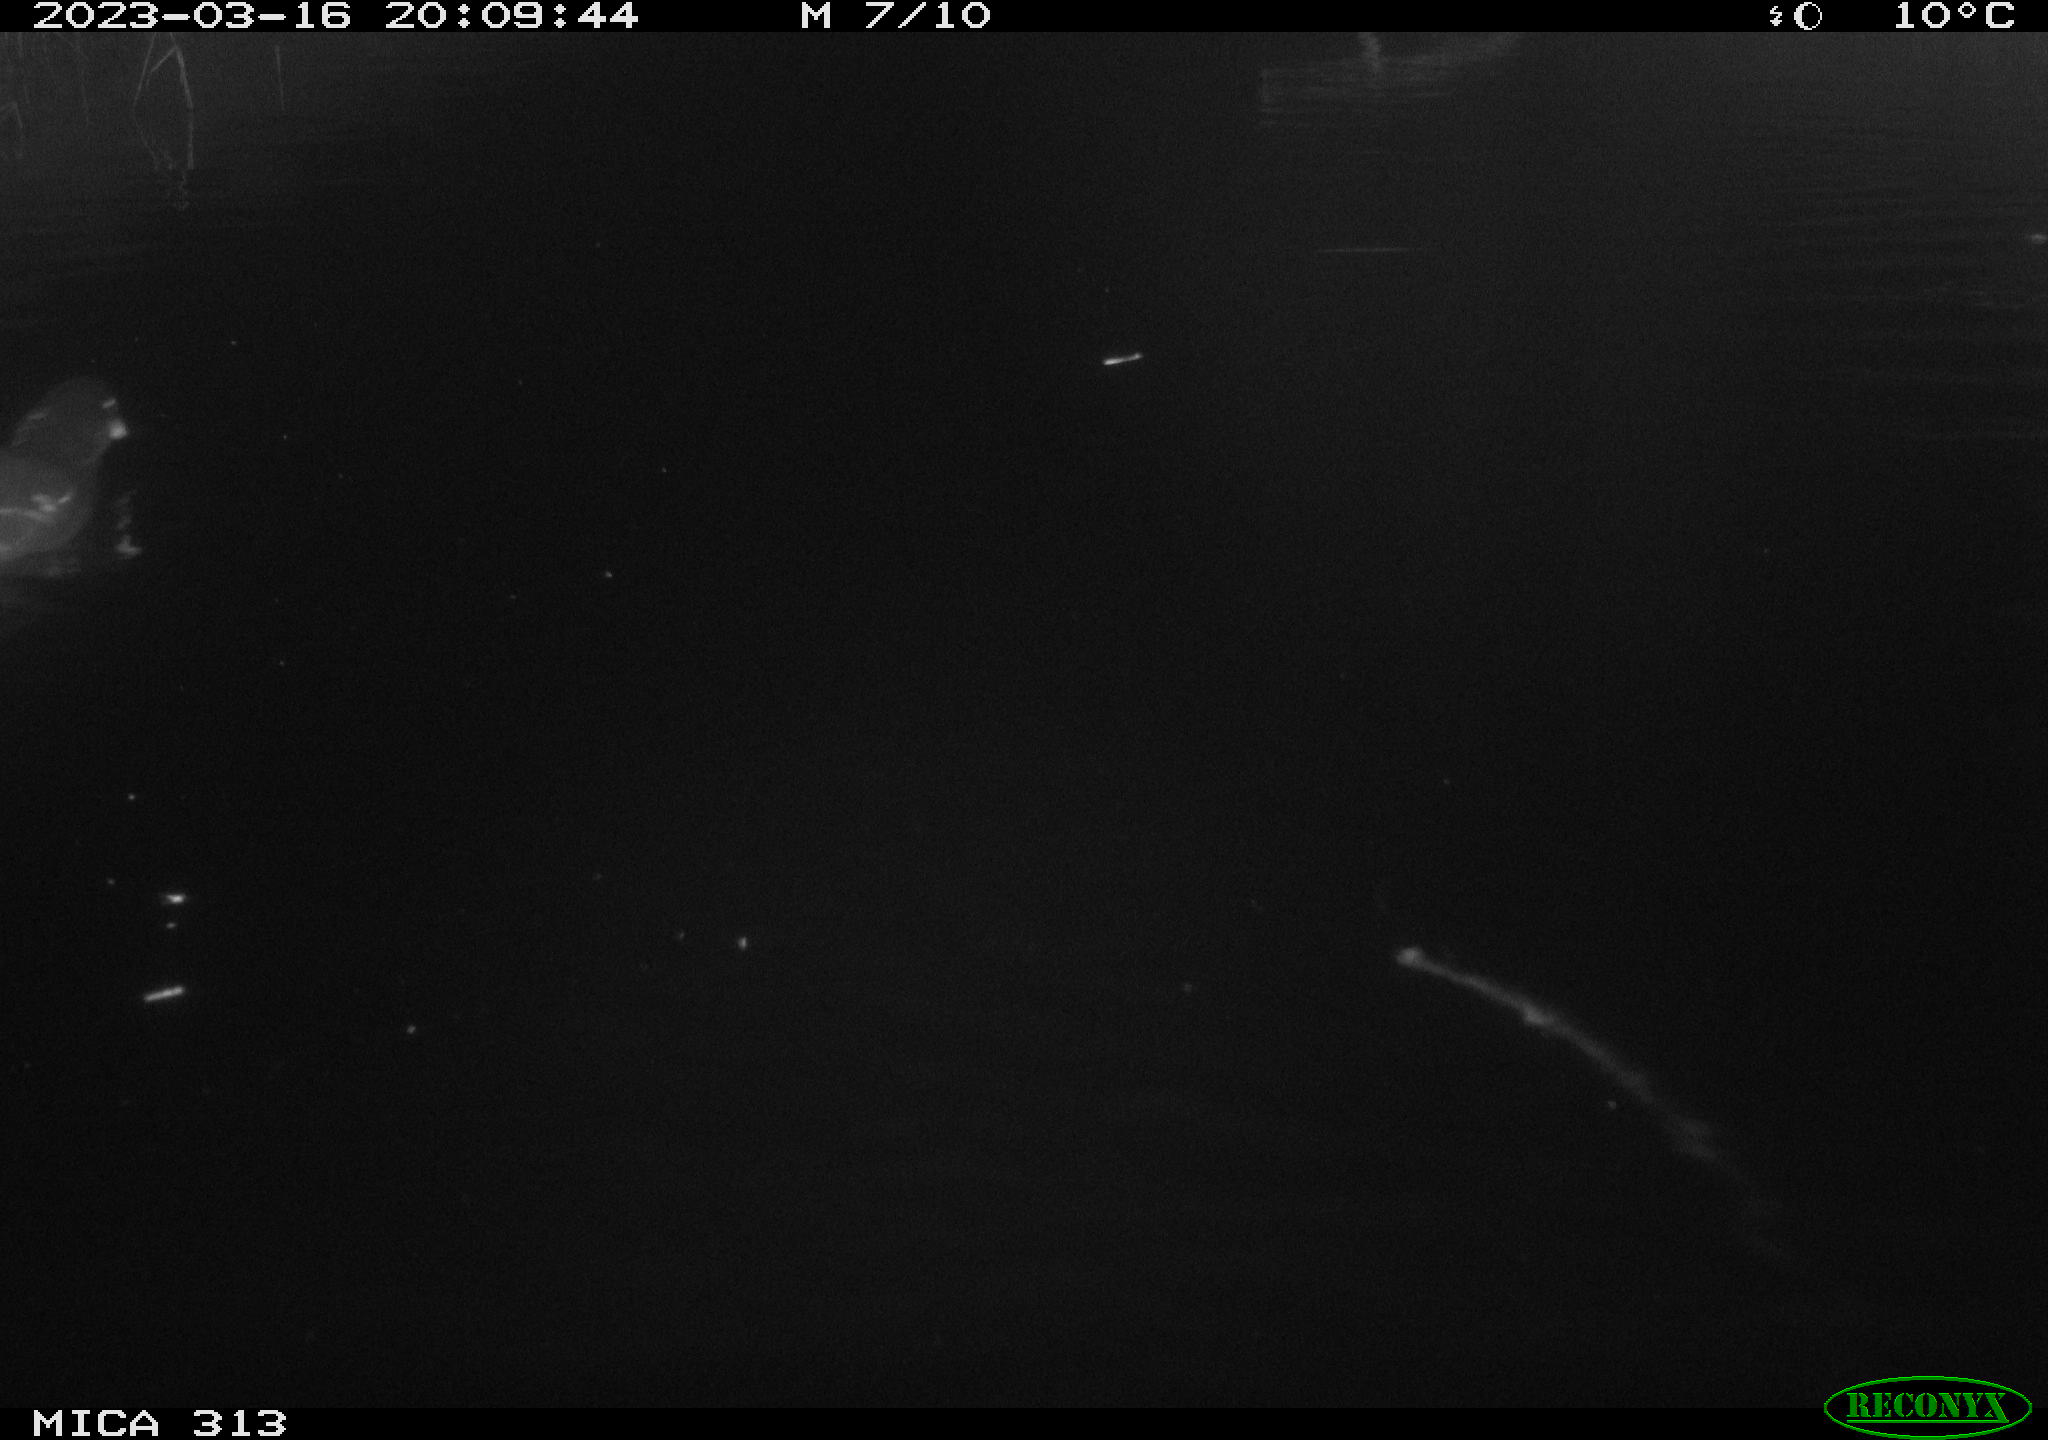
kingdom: Animalia
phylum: Chordata
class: Aves
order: Gruiformes
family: Rallidae
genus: Gallinula
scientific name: Gallinula chloropus
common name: Common moorhen
